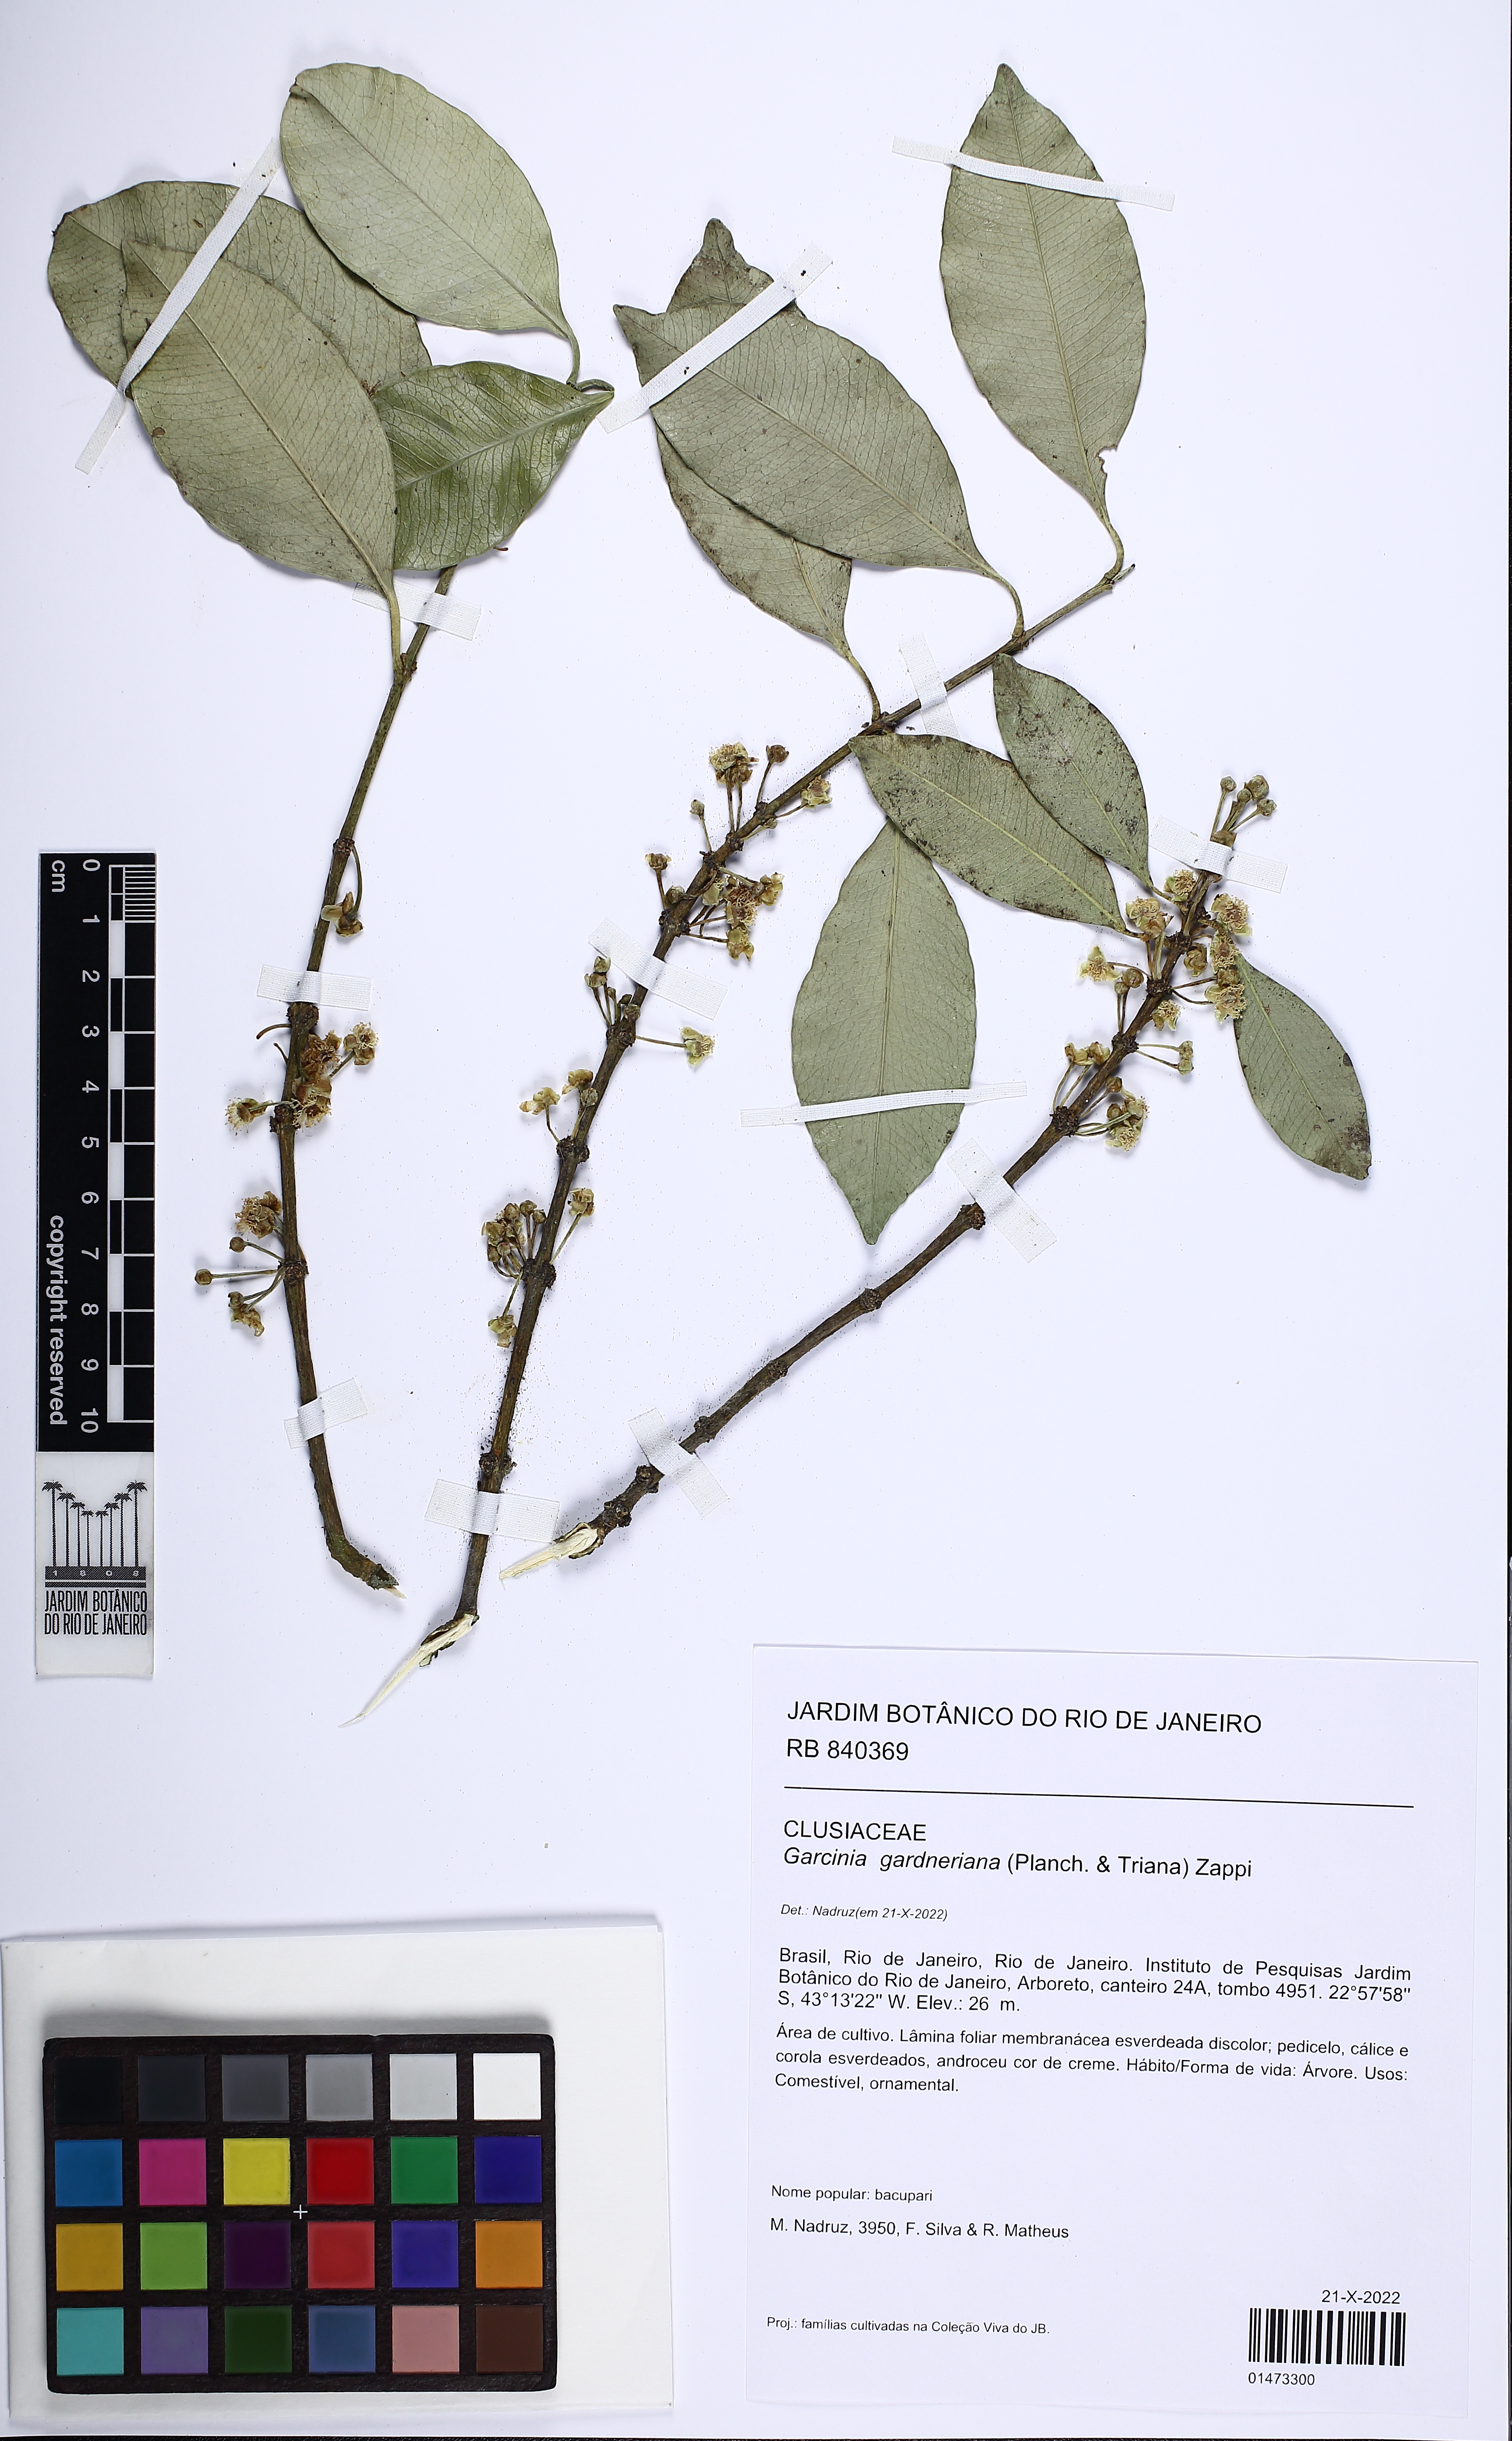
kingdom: Plantae
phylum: Tracheophyta
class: Magnoliopsida
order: Malpighiales
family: Clusiaceae
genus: Garcinia
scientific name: Garcinia gardneriana
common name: Achacha
